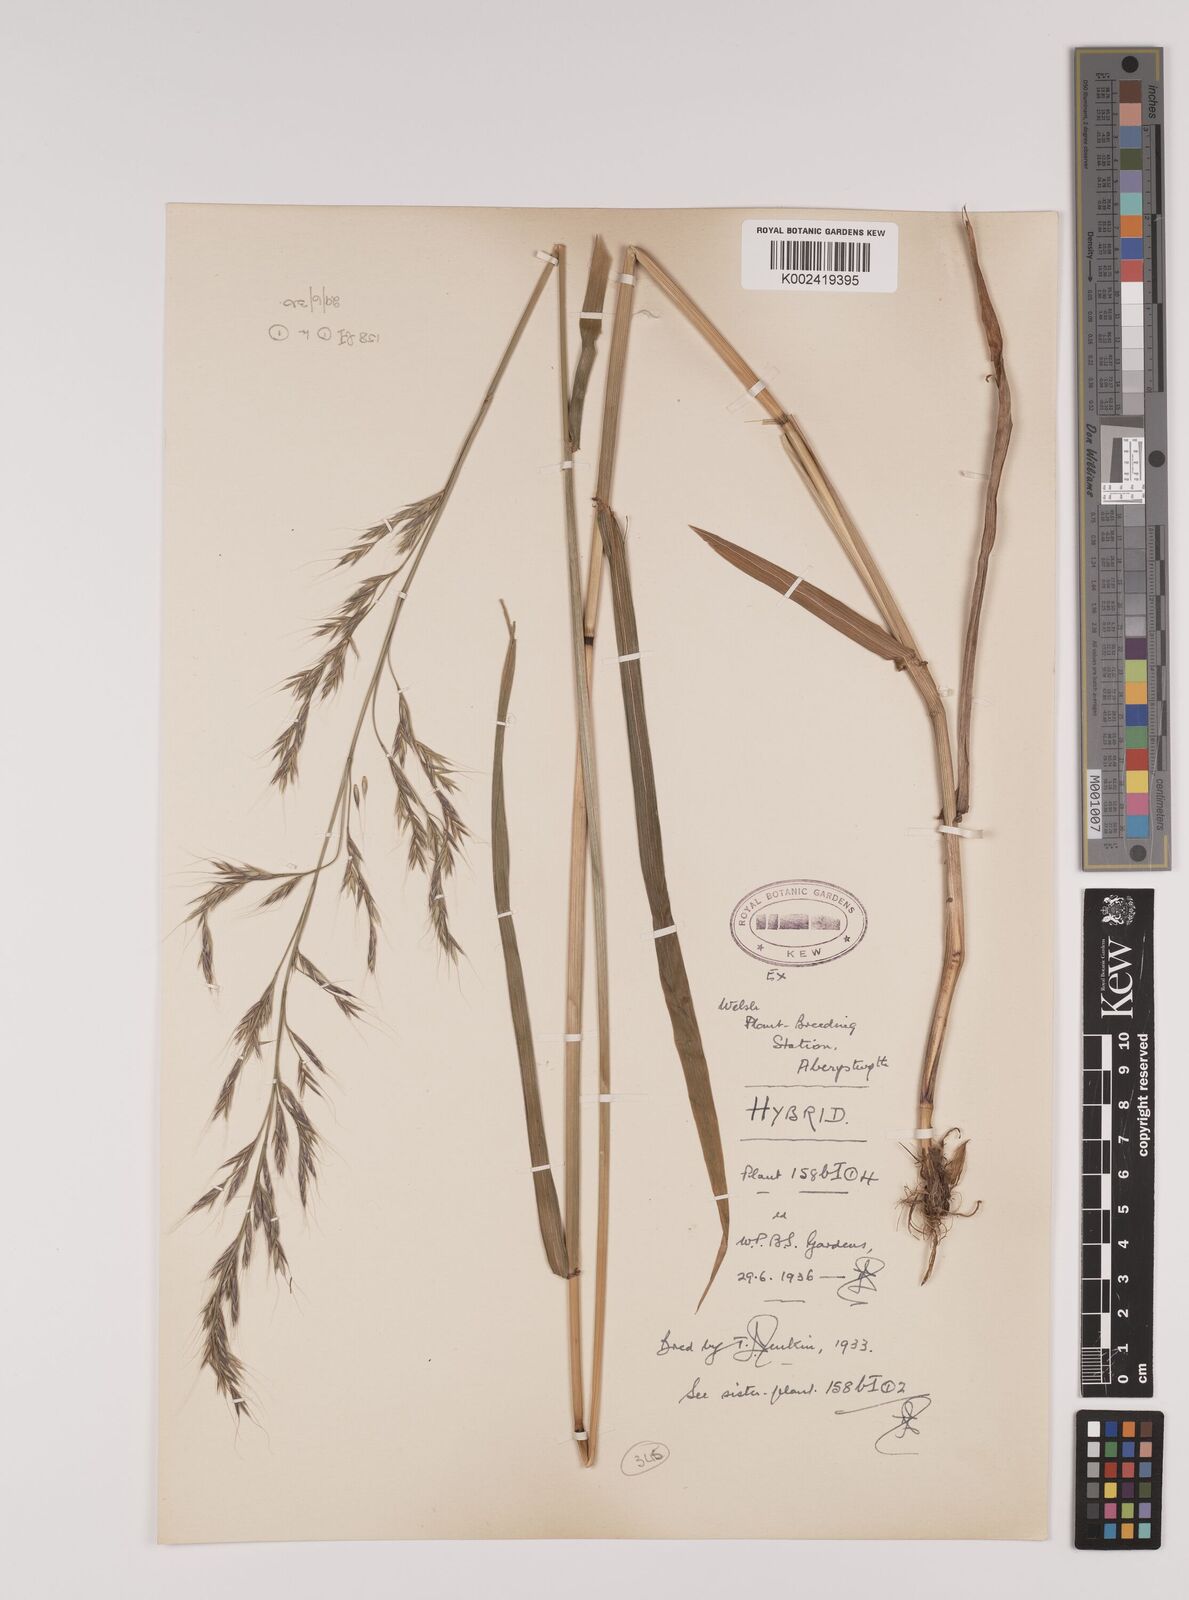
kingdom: Plantae
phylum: Tracheophyta
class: Liliopsida
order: Poales
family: Poaceae
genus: Lolium
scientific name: Lolium giganteum
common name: Giant fescue
